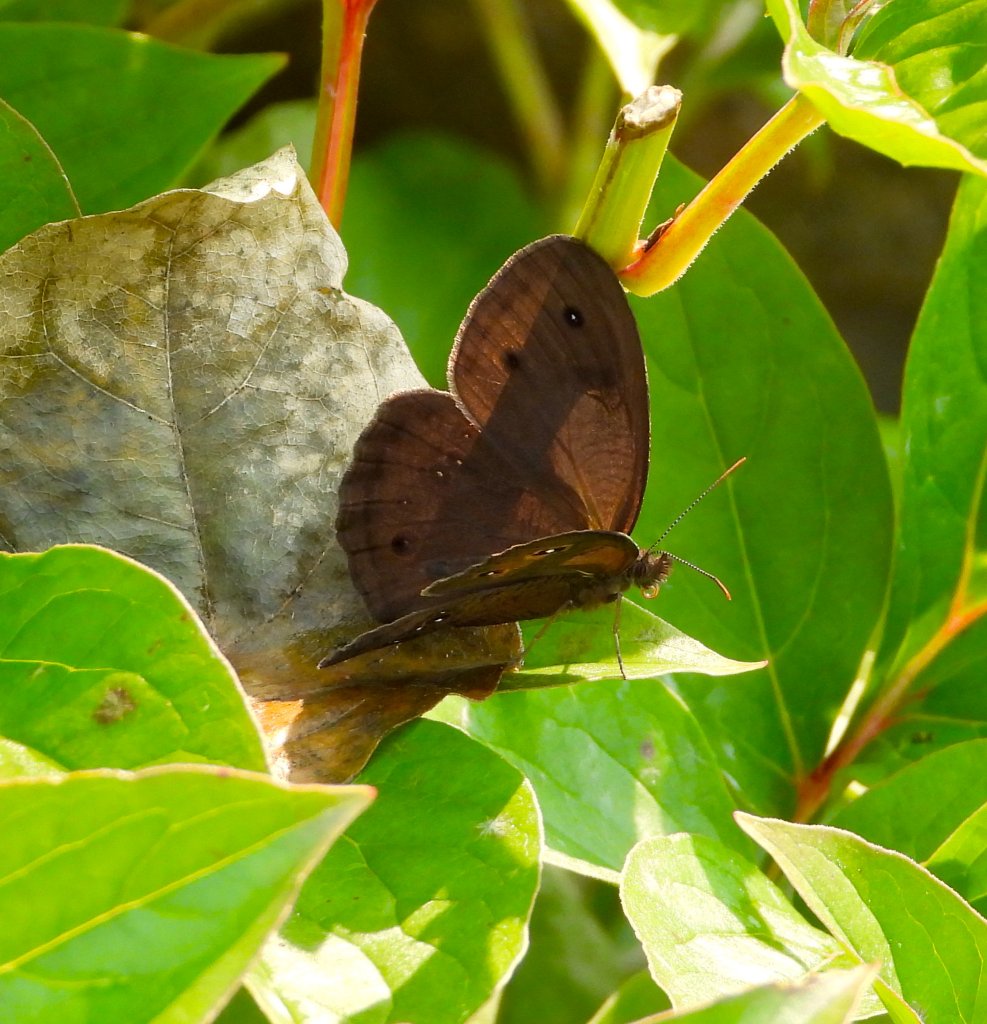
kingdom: Animalia
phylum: Arthropoda
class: Insecta
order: Lepidoptera
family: Nymphalidae
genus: Cercyonis
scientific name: Cercyonis pegala
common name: Common Wood-Nymph
